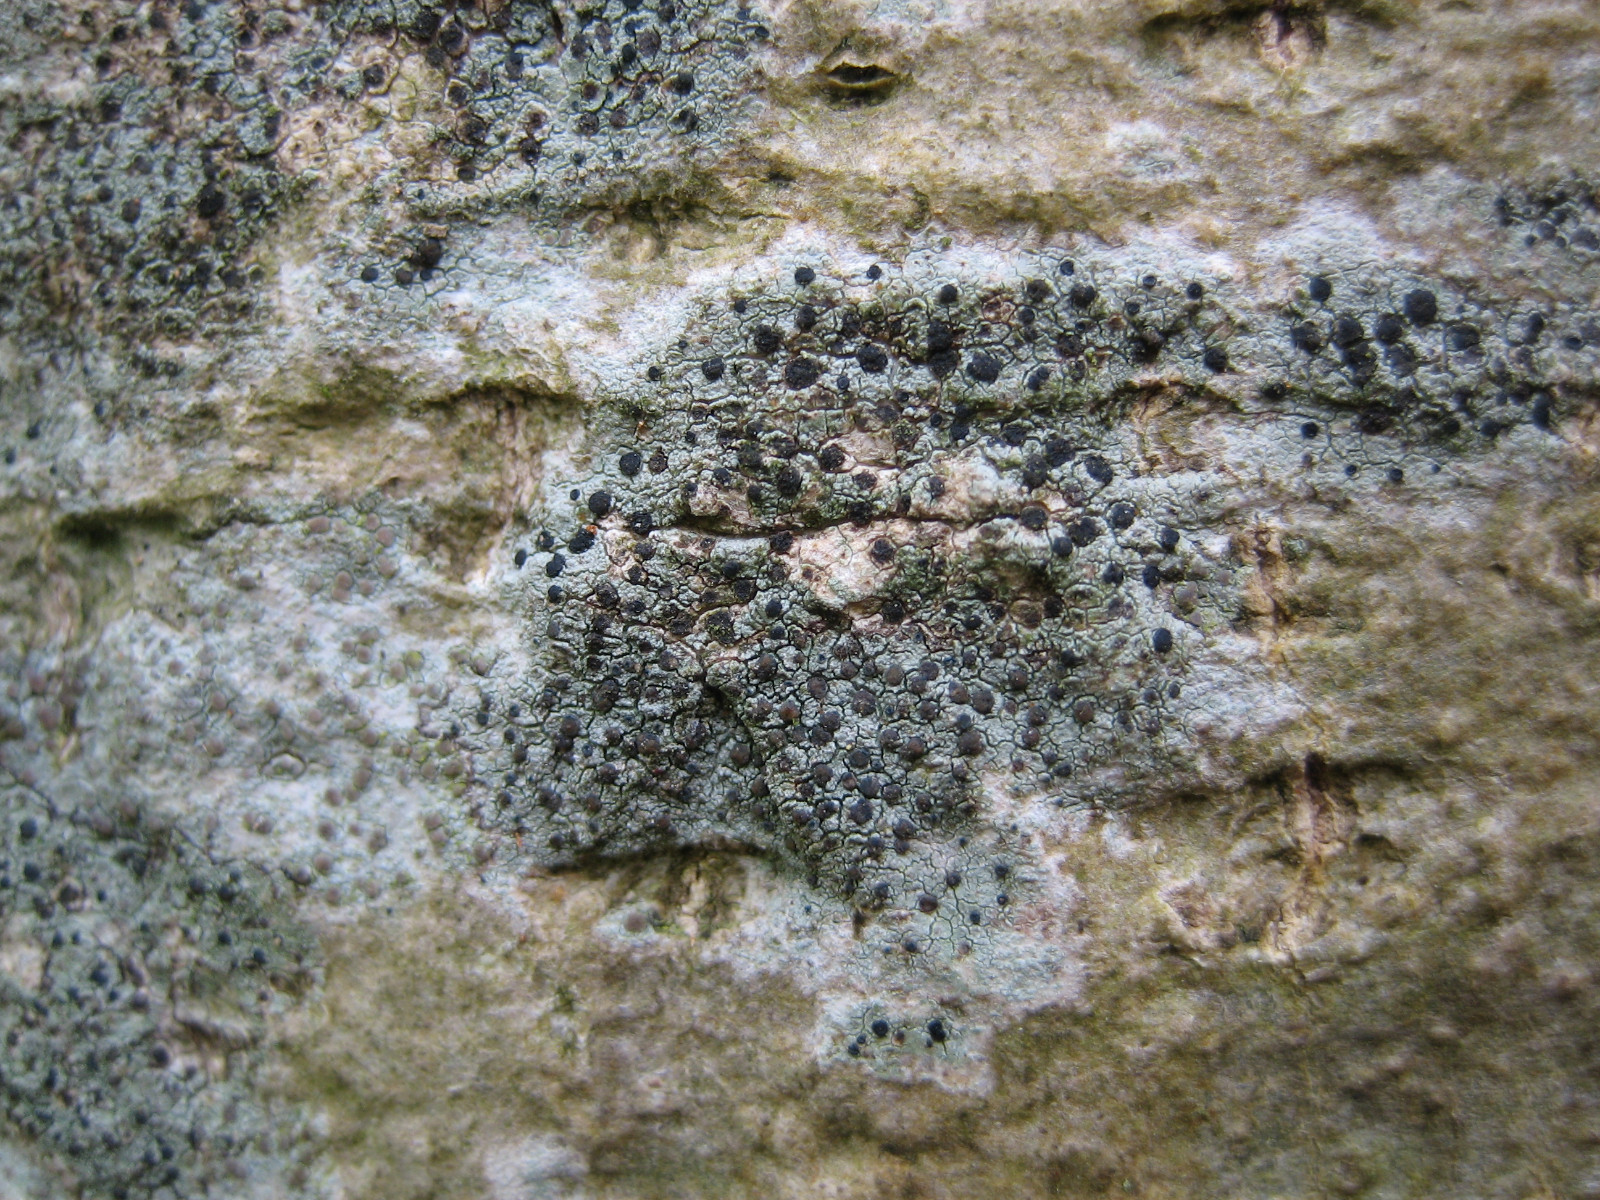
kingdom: Fungi
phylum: Ascomycota
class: Lecanoromycetes
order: Lecanorales
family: Lecanoraceae
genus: Lecidella
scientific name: Lecidella elaeochroma
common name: grågrøn skivelav
